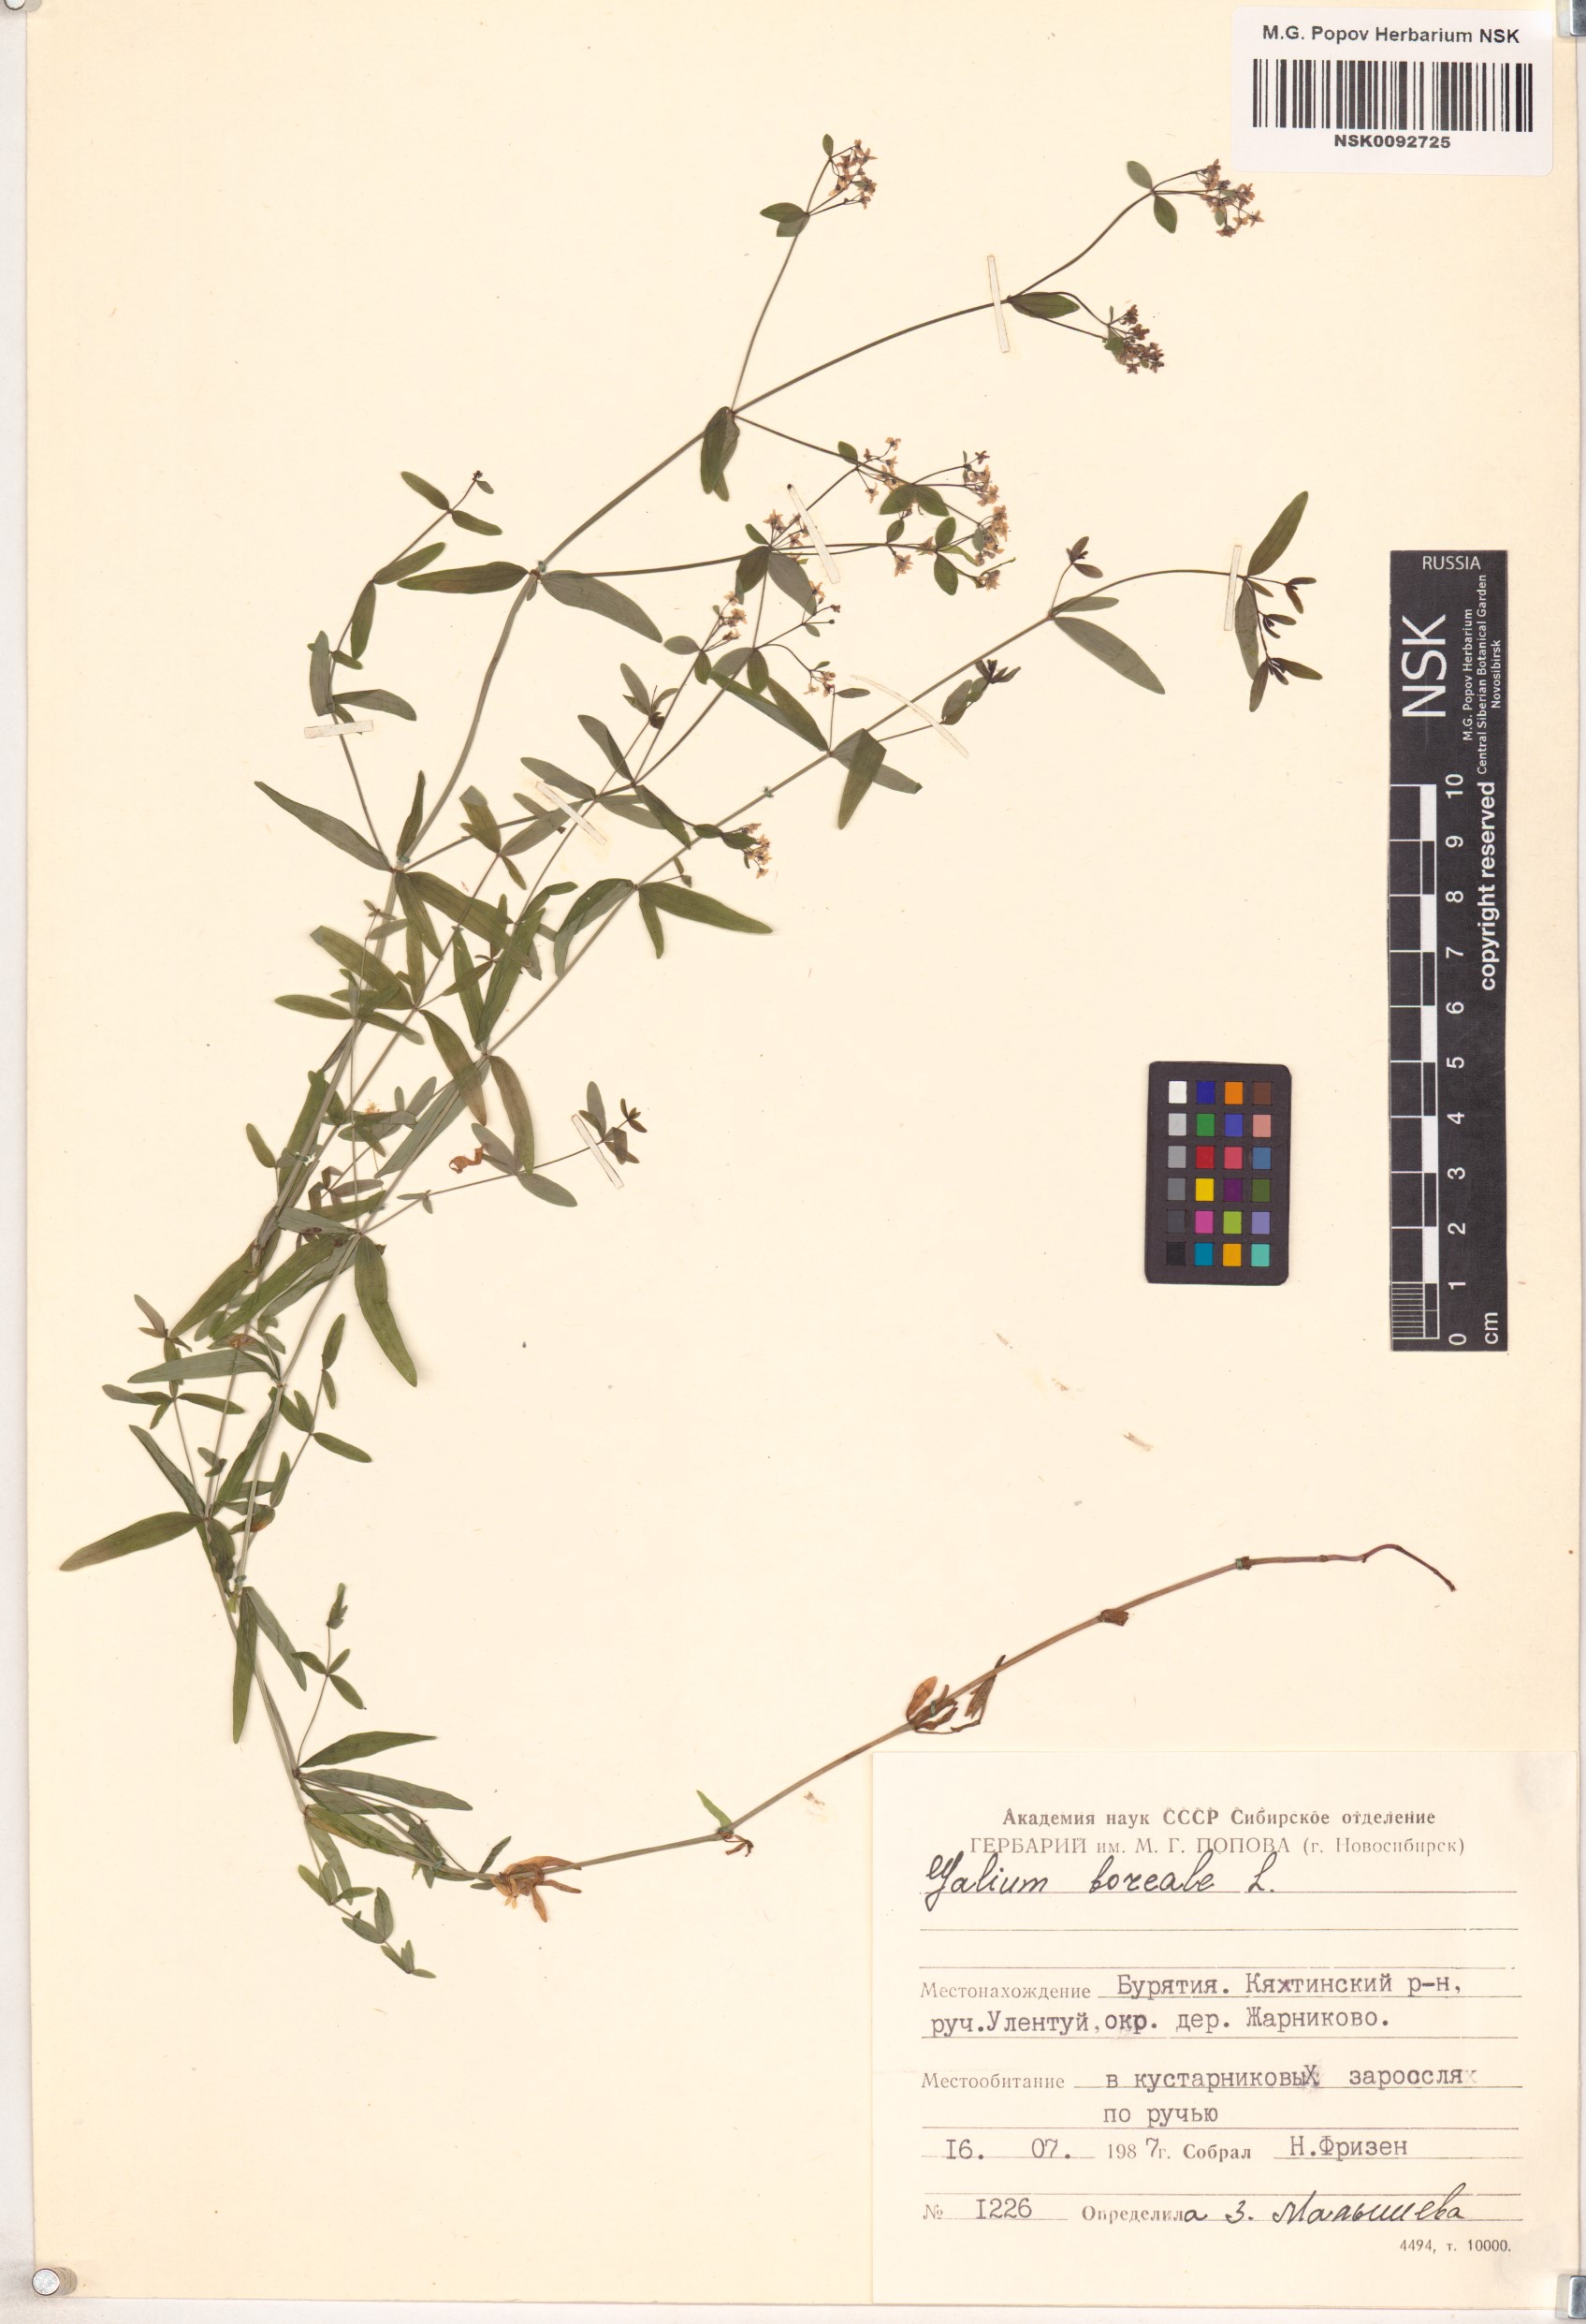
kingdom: Plantae
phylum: Tracheophyta
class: Magnoliopsida
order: Gentianales
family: Rubiaceae
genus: Galium
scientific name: Galium boreale
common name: Northern bedstraw
